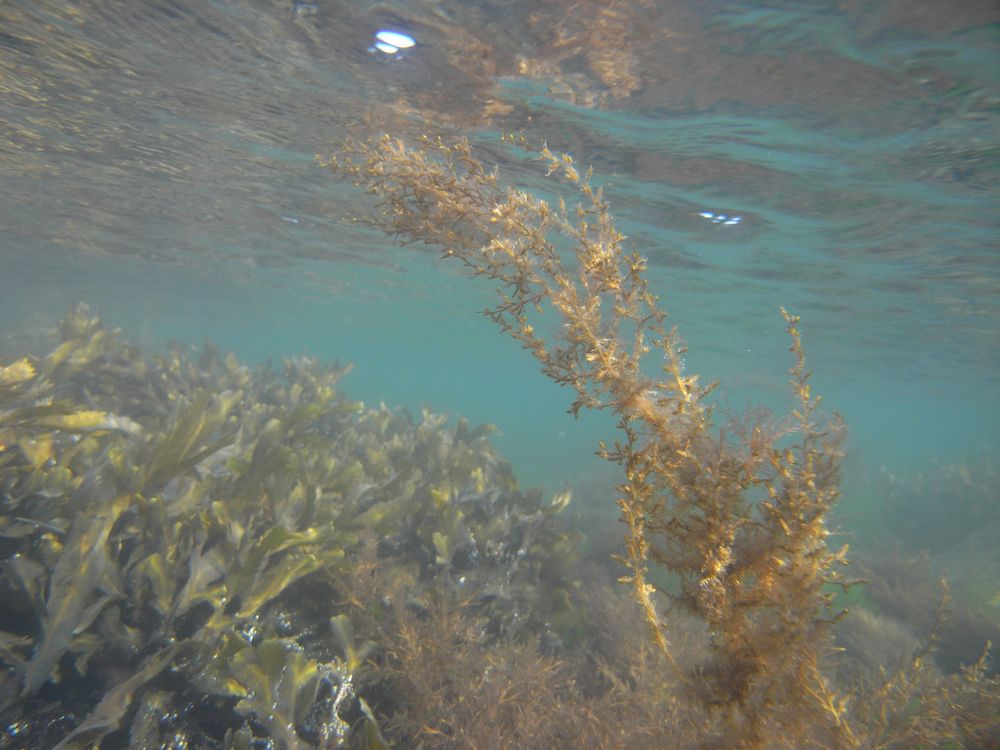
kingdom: Chromista
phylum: Ochrophyta
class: Phaeophyceae
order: Fucales
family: Sargassaceae
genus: Sargassum
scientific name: Sargassum muticum
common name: Japweed
